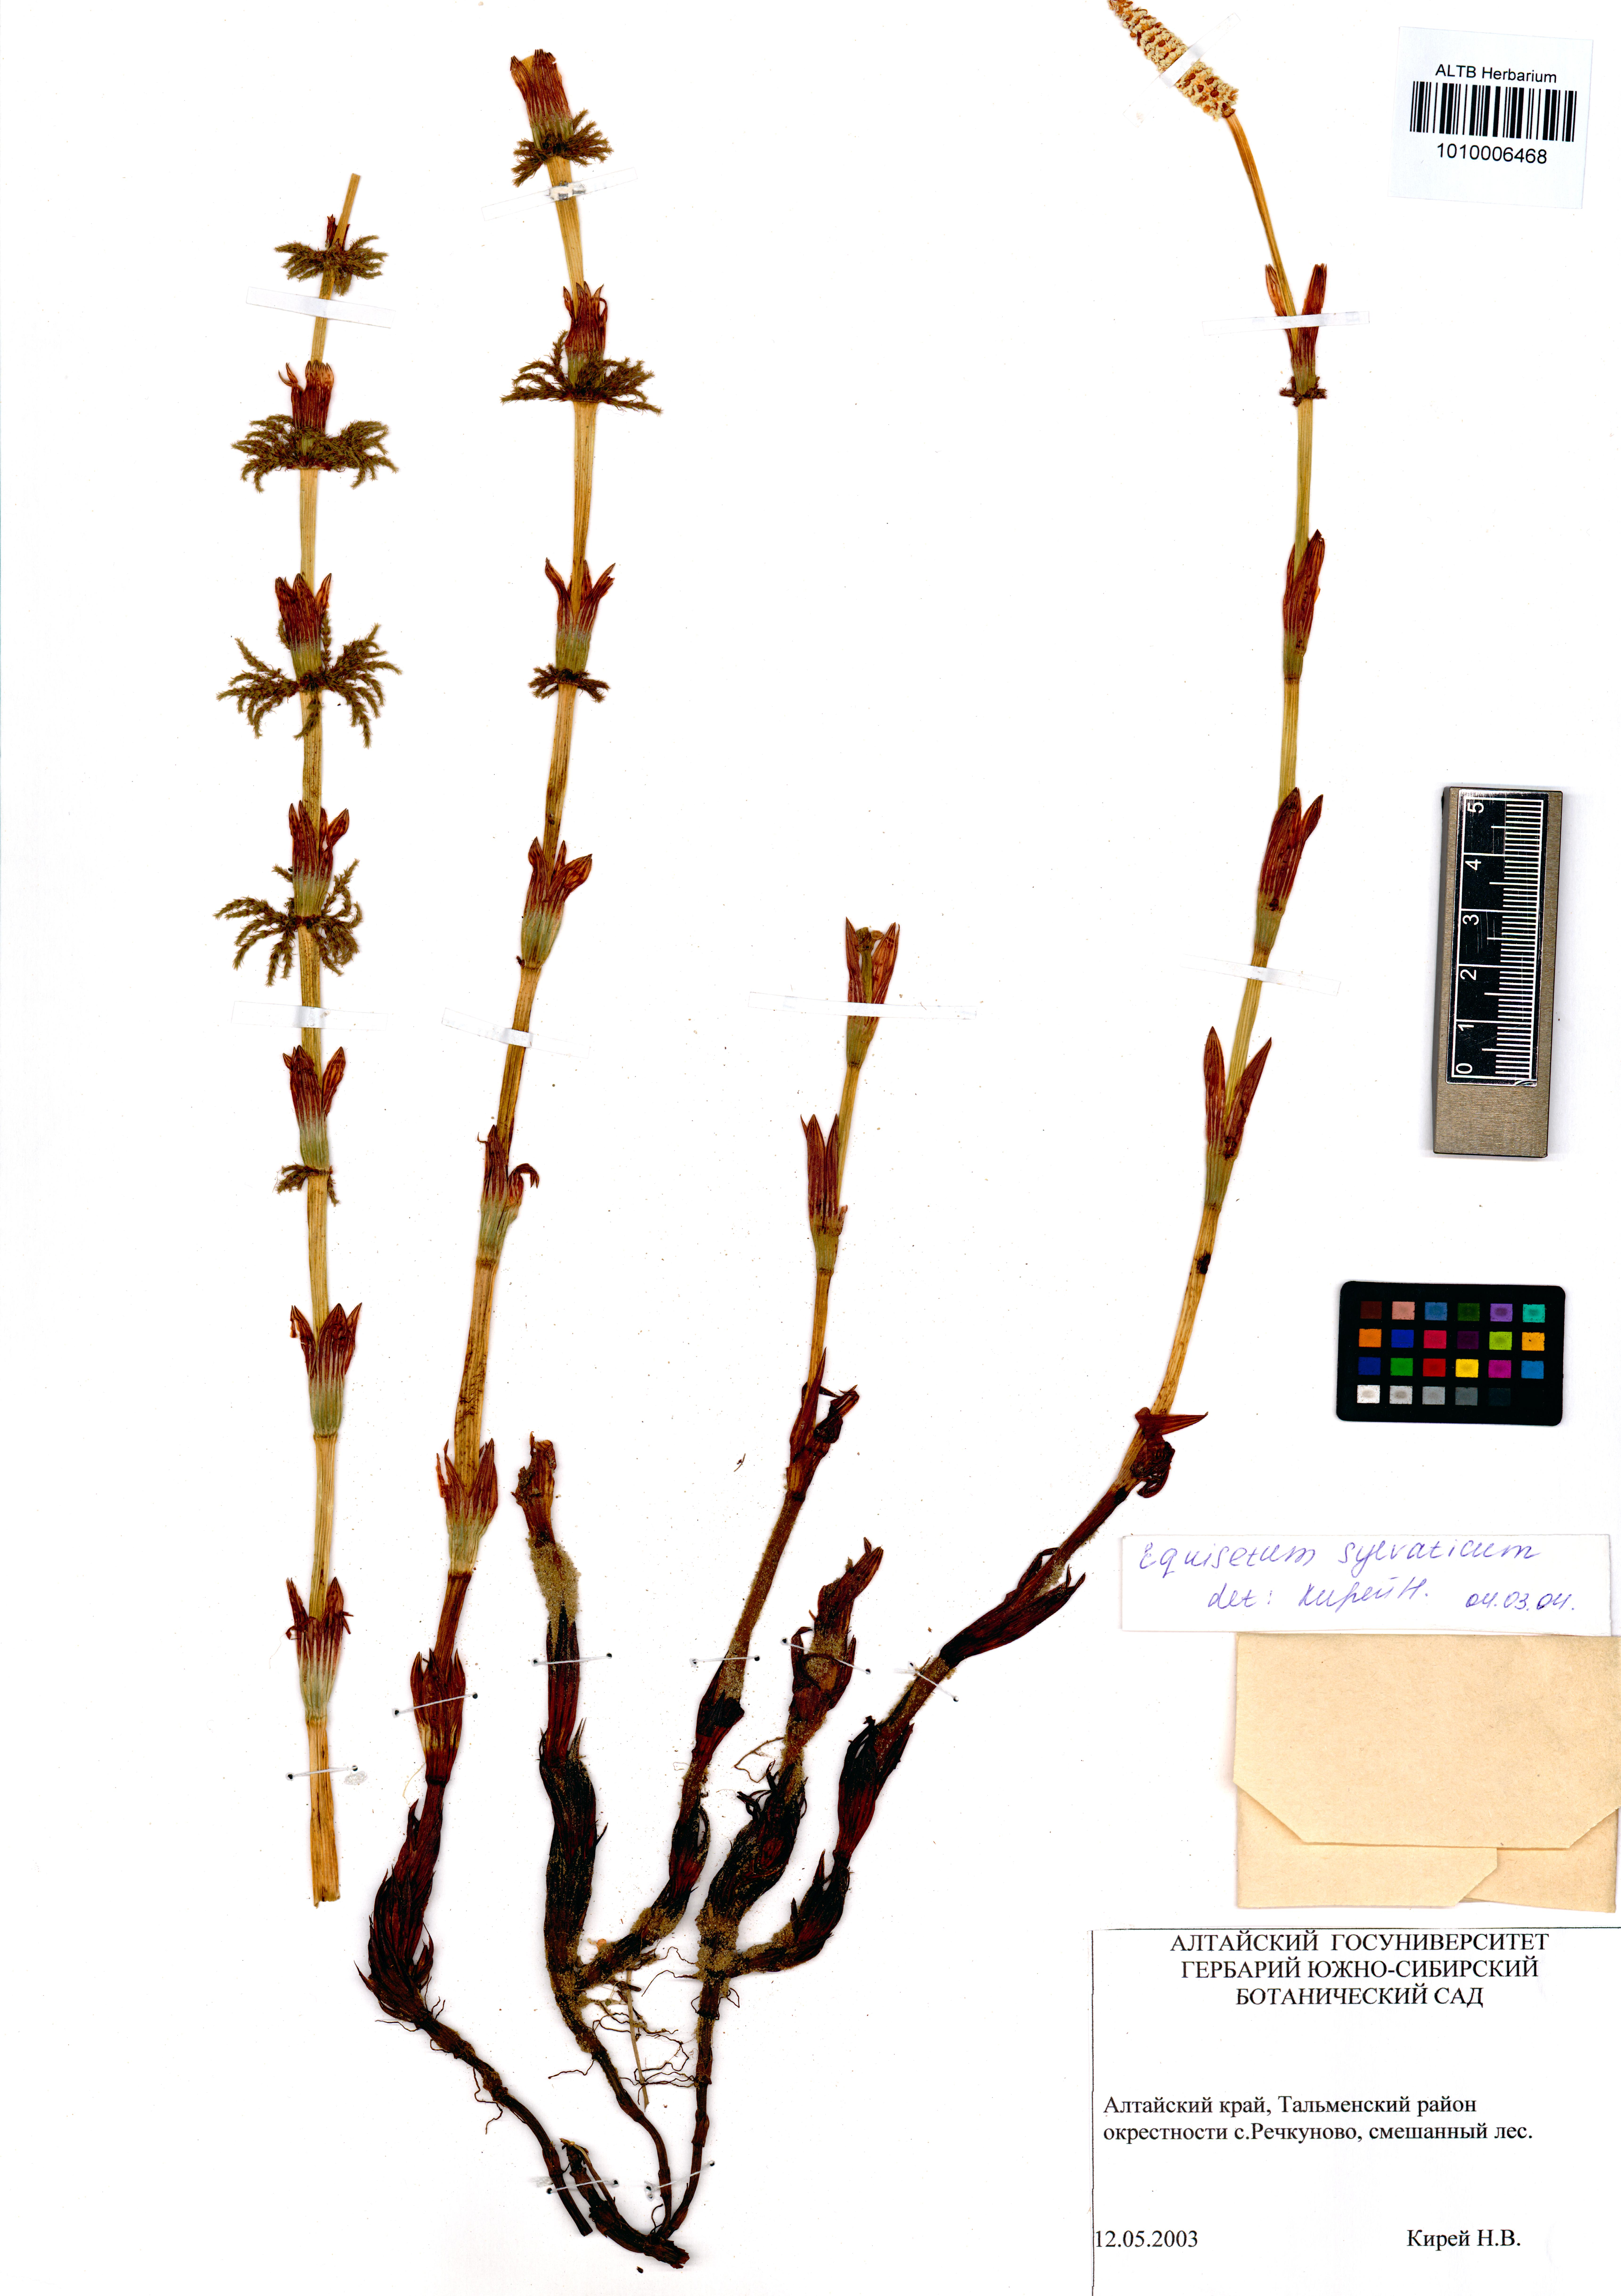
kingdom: Plantae
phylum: Tracheophyta
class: Polypodiopsida
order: Equisetales
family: Equisetaceae
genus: Equisetum
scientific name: Equisetum sylvaticum
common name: Wood horsetail
